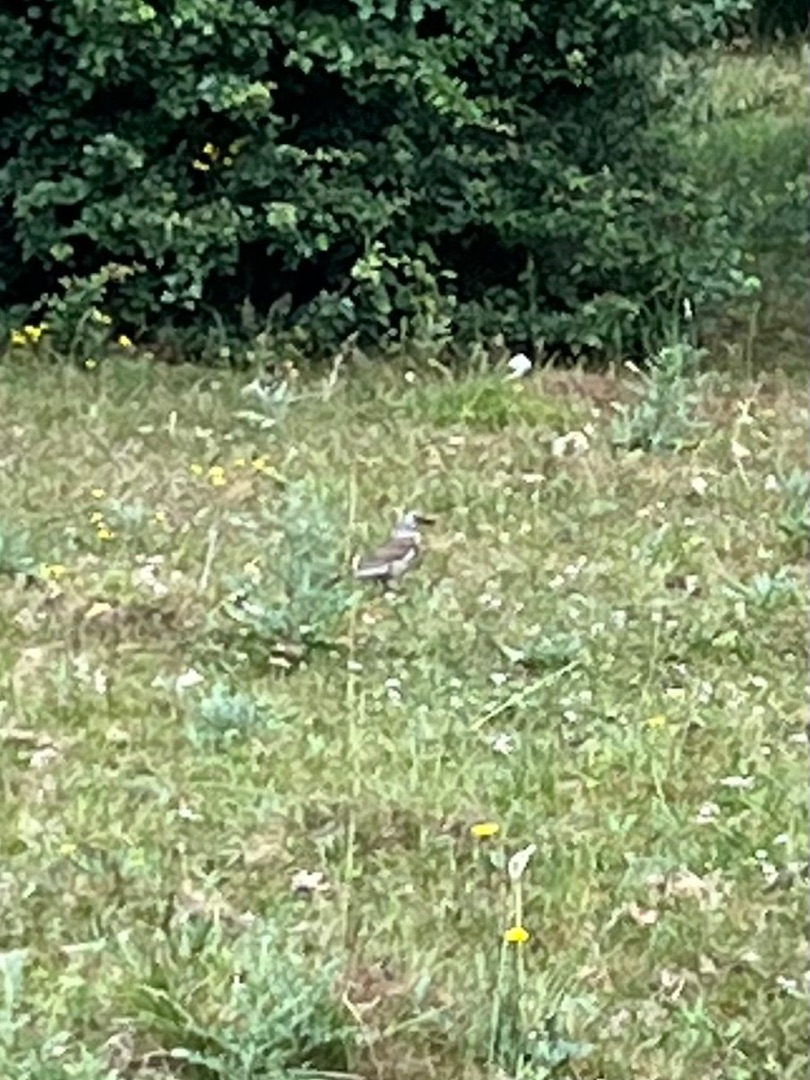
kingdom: Animalia
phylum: Chordata
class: Aves
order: Passeriformes
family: Turdidae
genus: Turdus
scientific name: Turdus pilaris
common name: Sjagger
